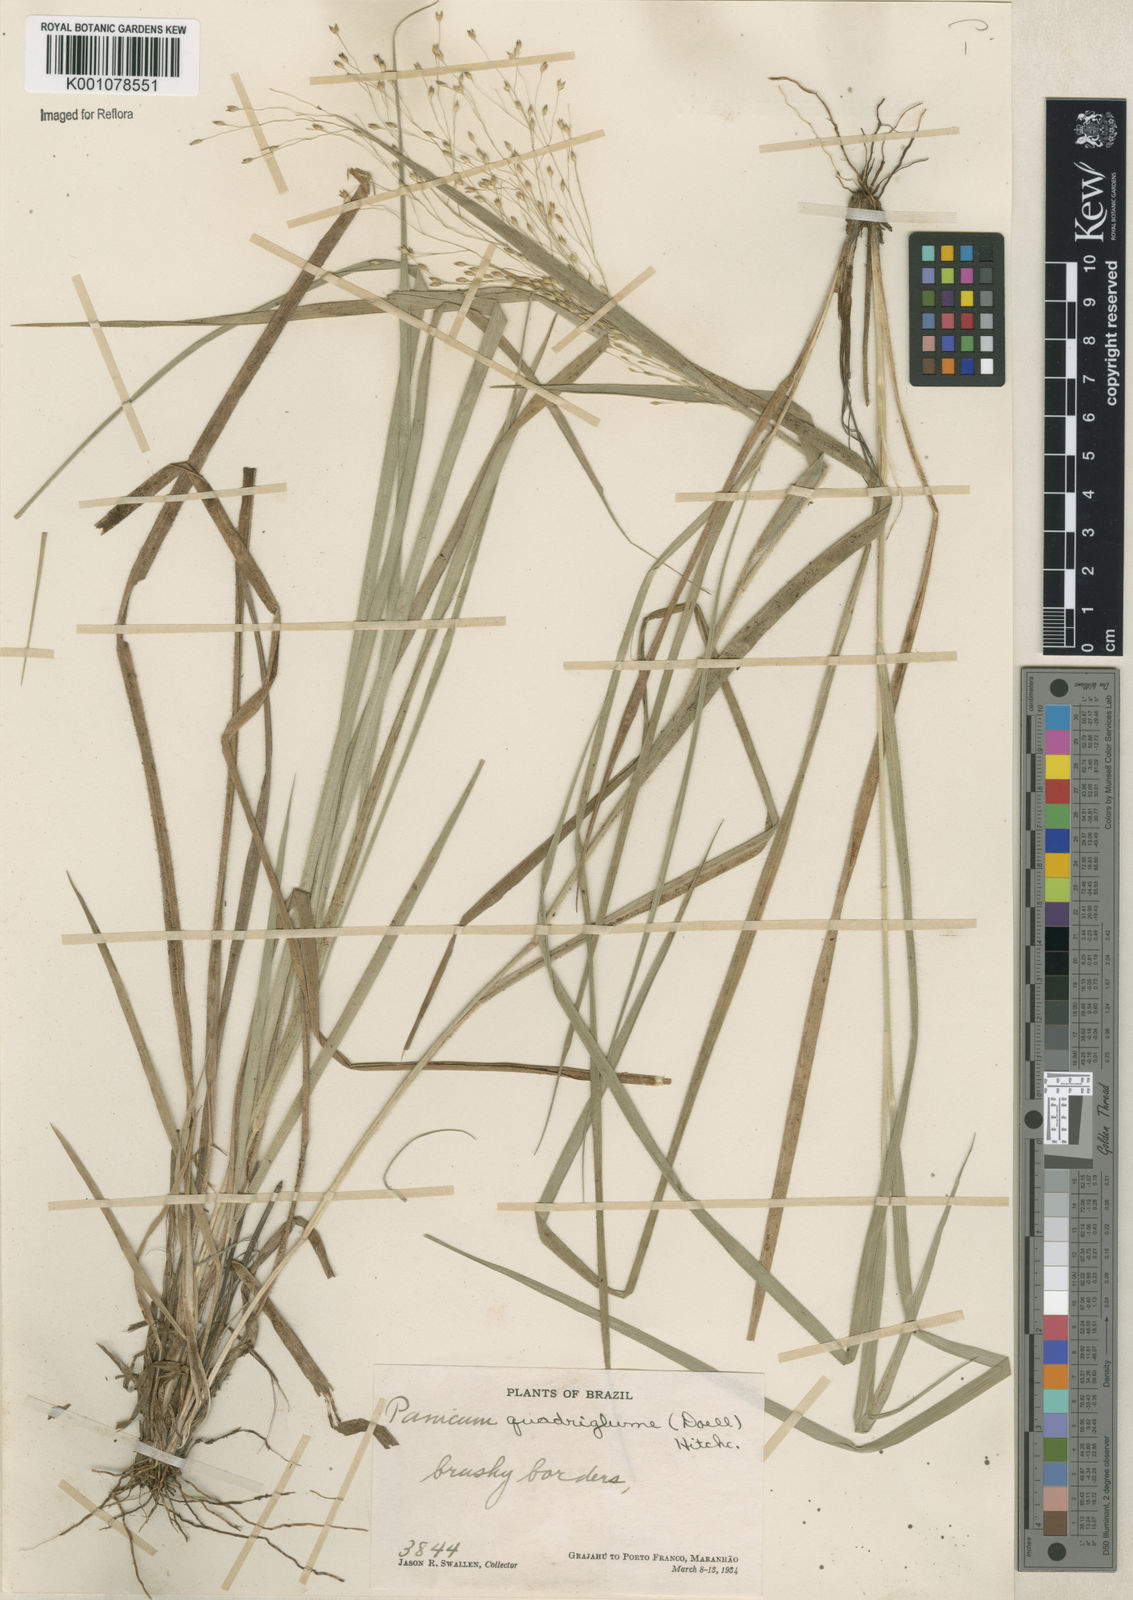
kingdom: Plantae
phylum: Tracheophyta
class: Liliopsida
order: Poales
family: Poaceae
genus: Panicum
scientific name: Panicum
